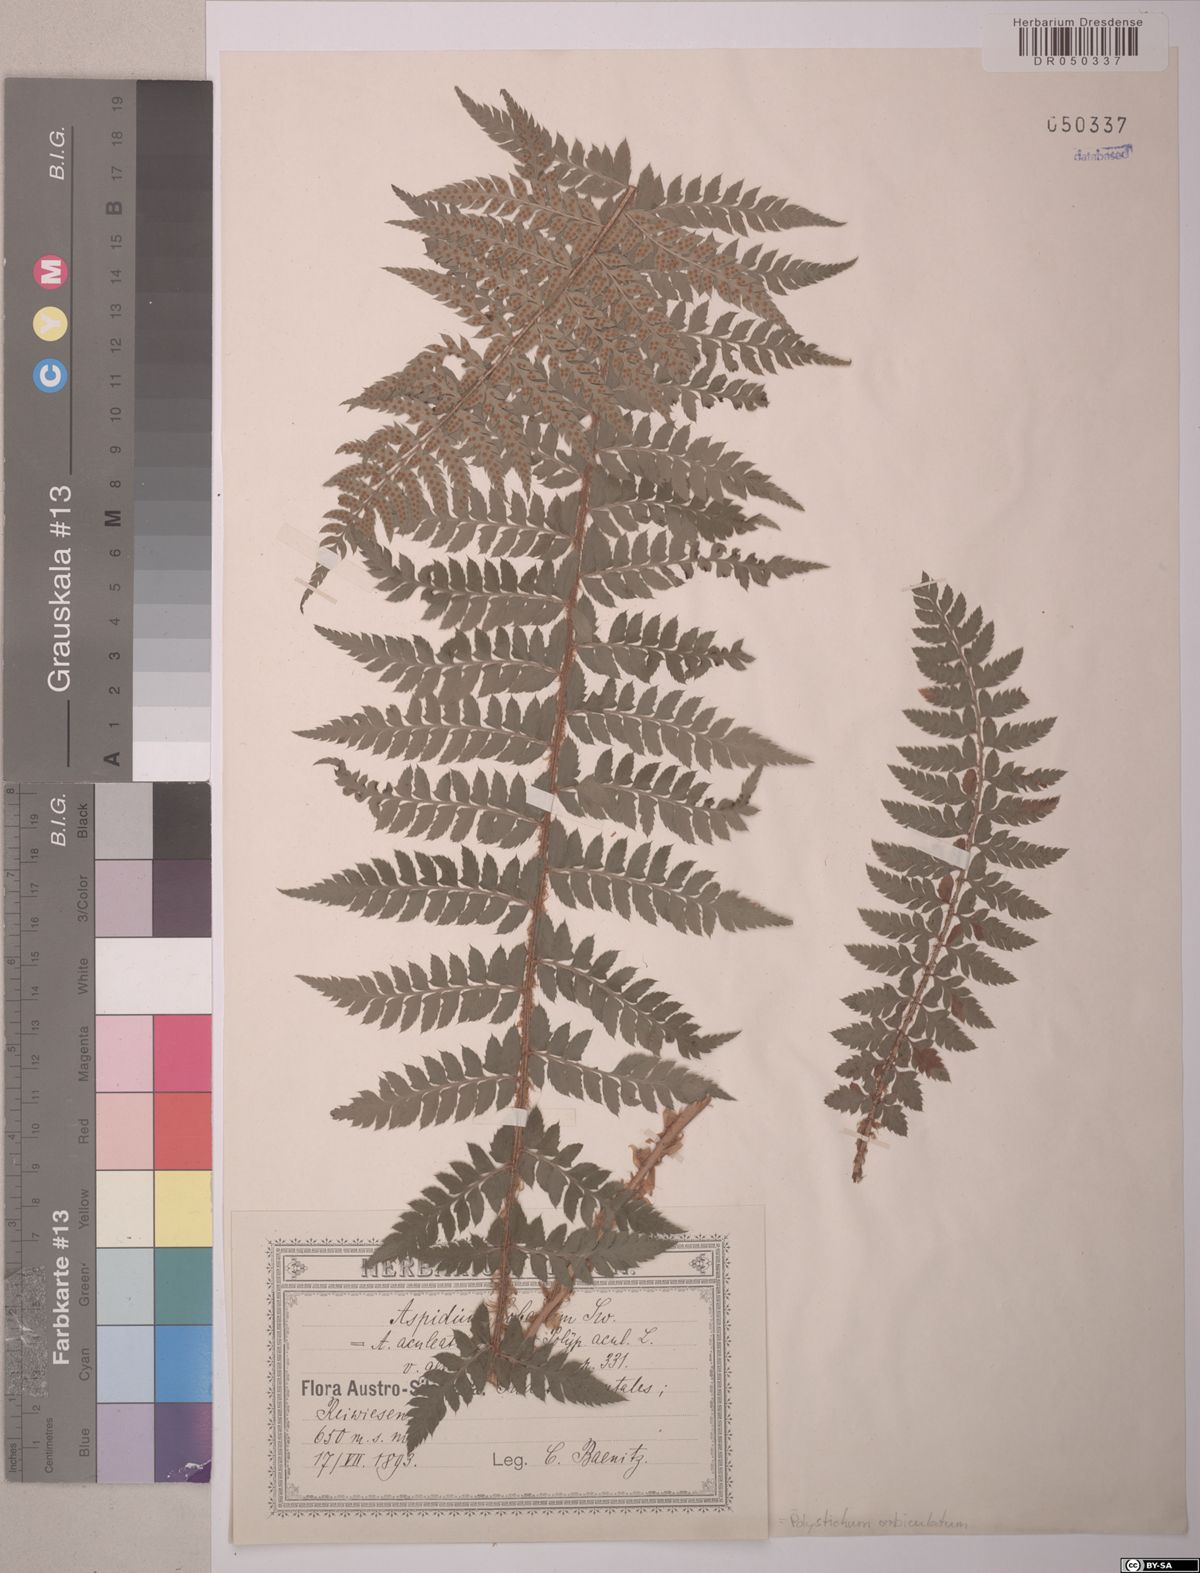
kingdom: Plantae
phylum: Tracheophyta
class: Polypodiopsida
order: Polypodiales
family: Dryopteridaceae
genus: Polystichum
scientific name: Polystichum aculeatum
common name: Hard shield-fern
